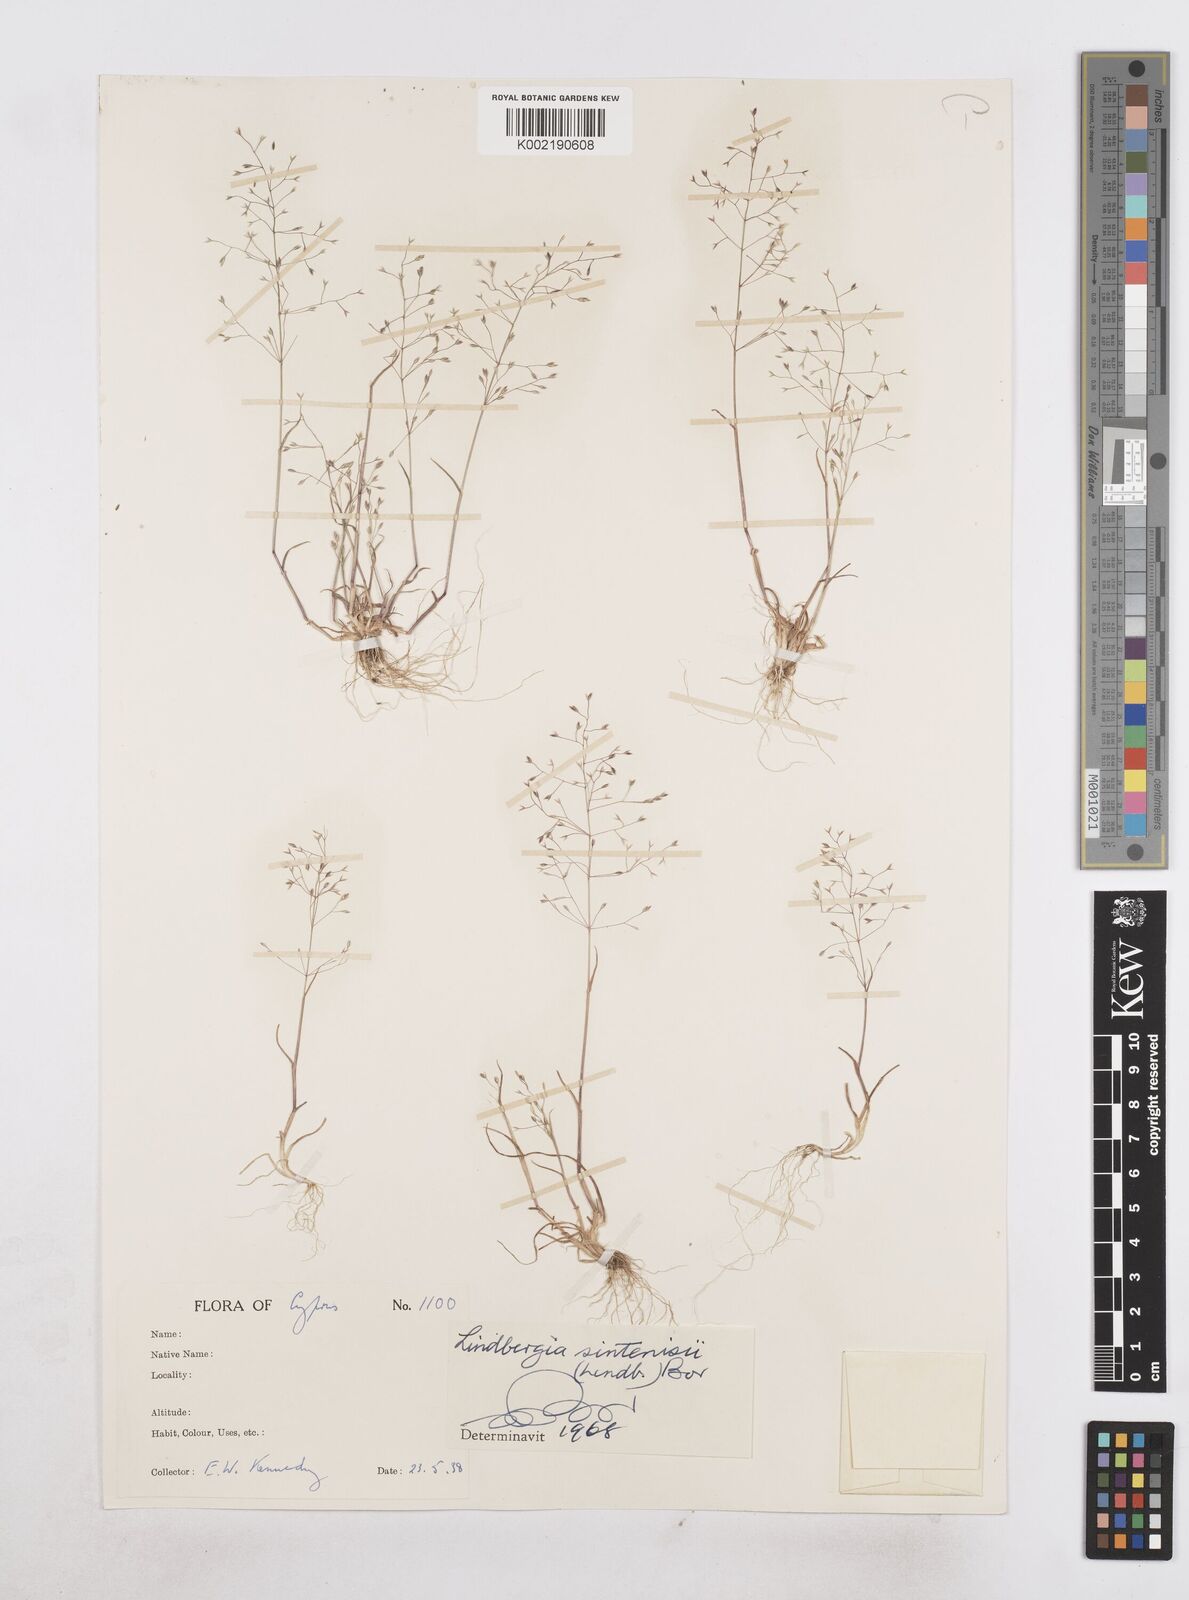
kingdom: Plantae
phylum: Tracheophyta
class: Liliopsida
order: Poales
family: Poaceae
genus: Poa
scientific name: Poa sintenisii
